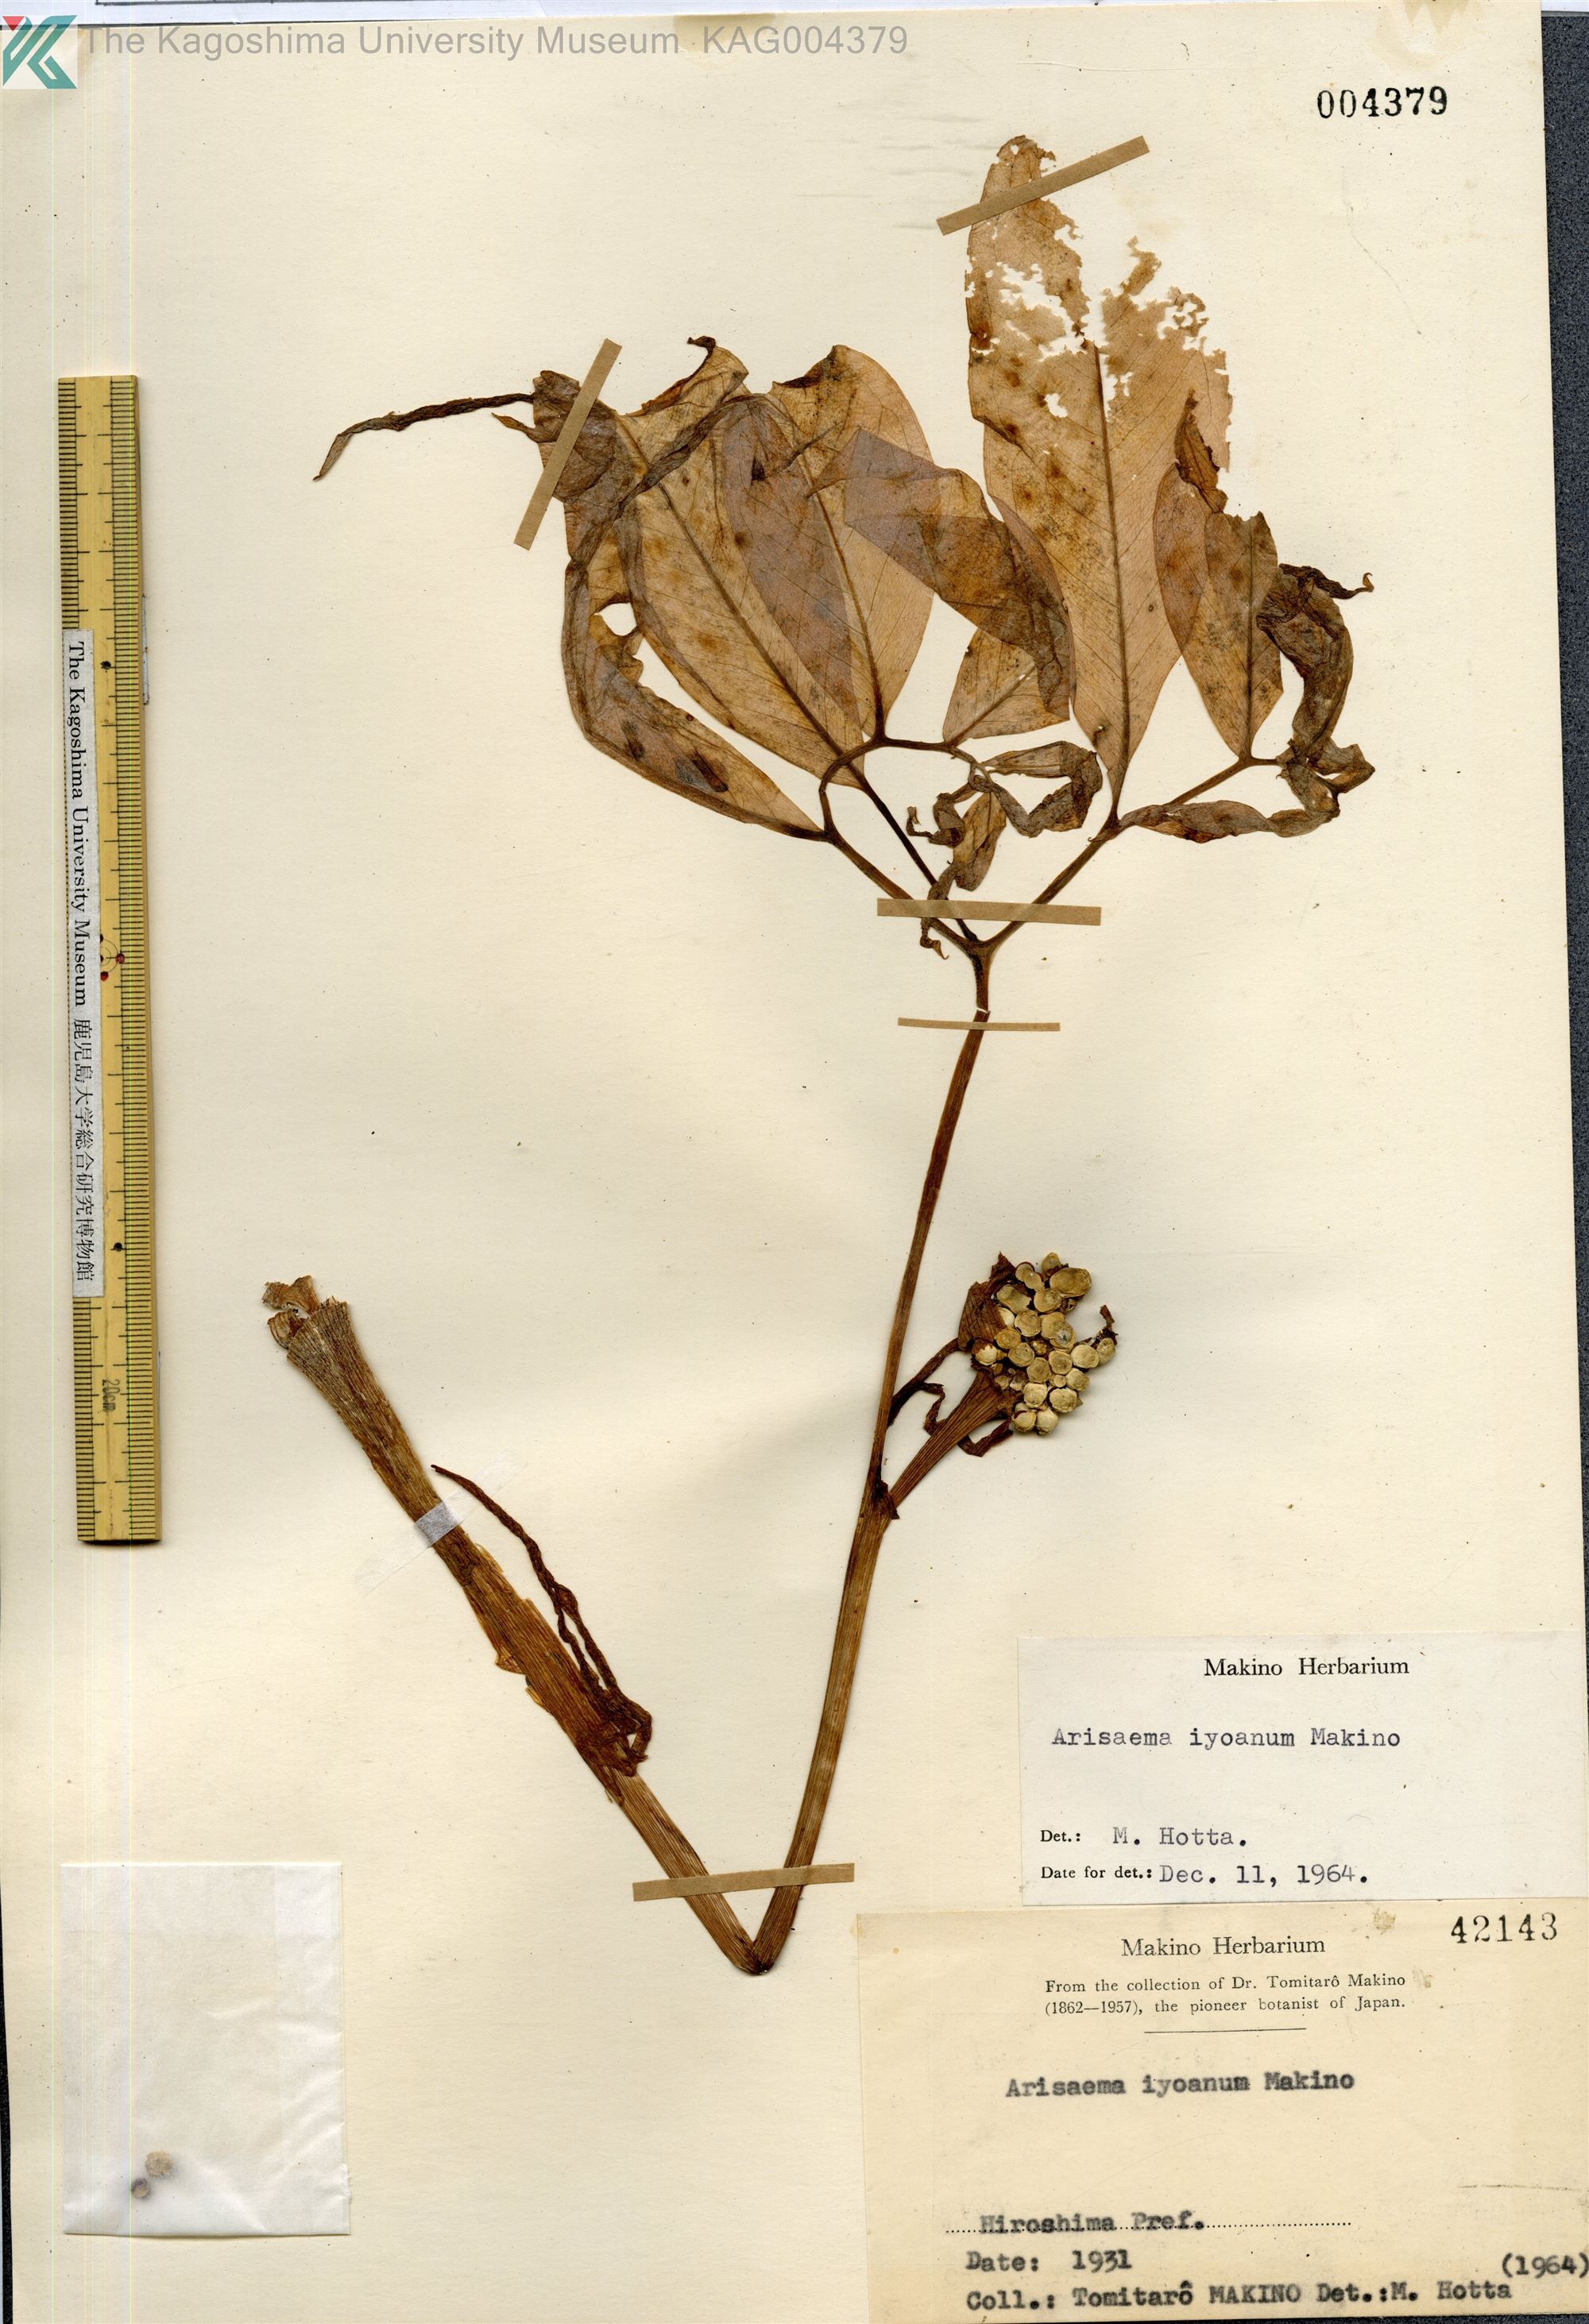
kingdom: Plantae
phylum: Tracheophyta
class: Liliopsida
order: Alismatales
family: Araceae
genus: Arisaema
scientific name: Arisaema iyoanum
